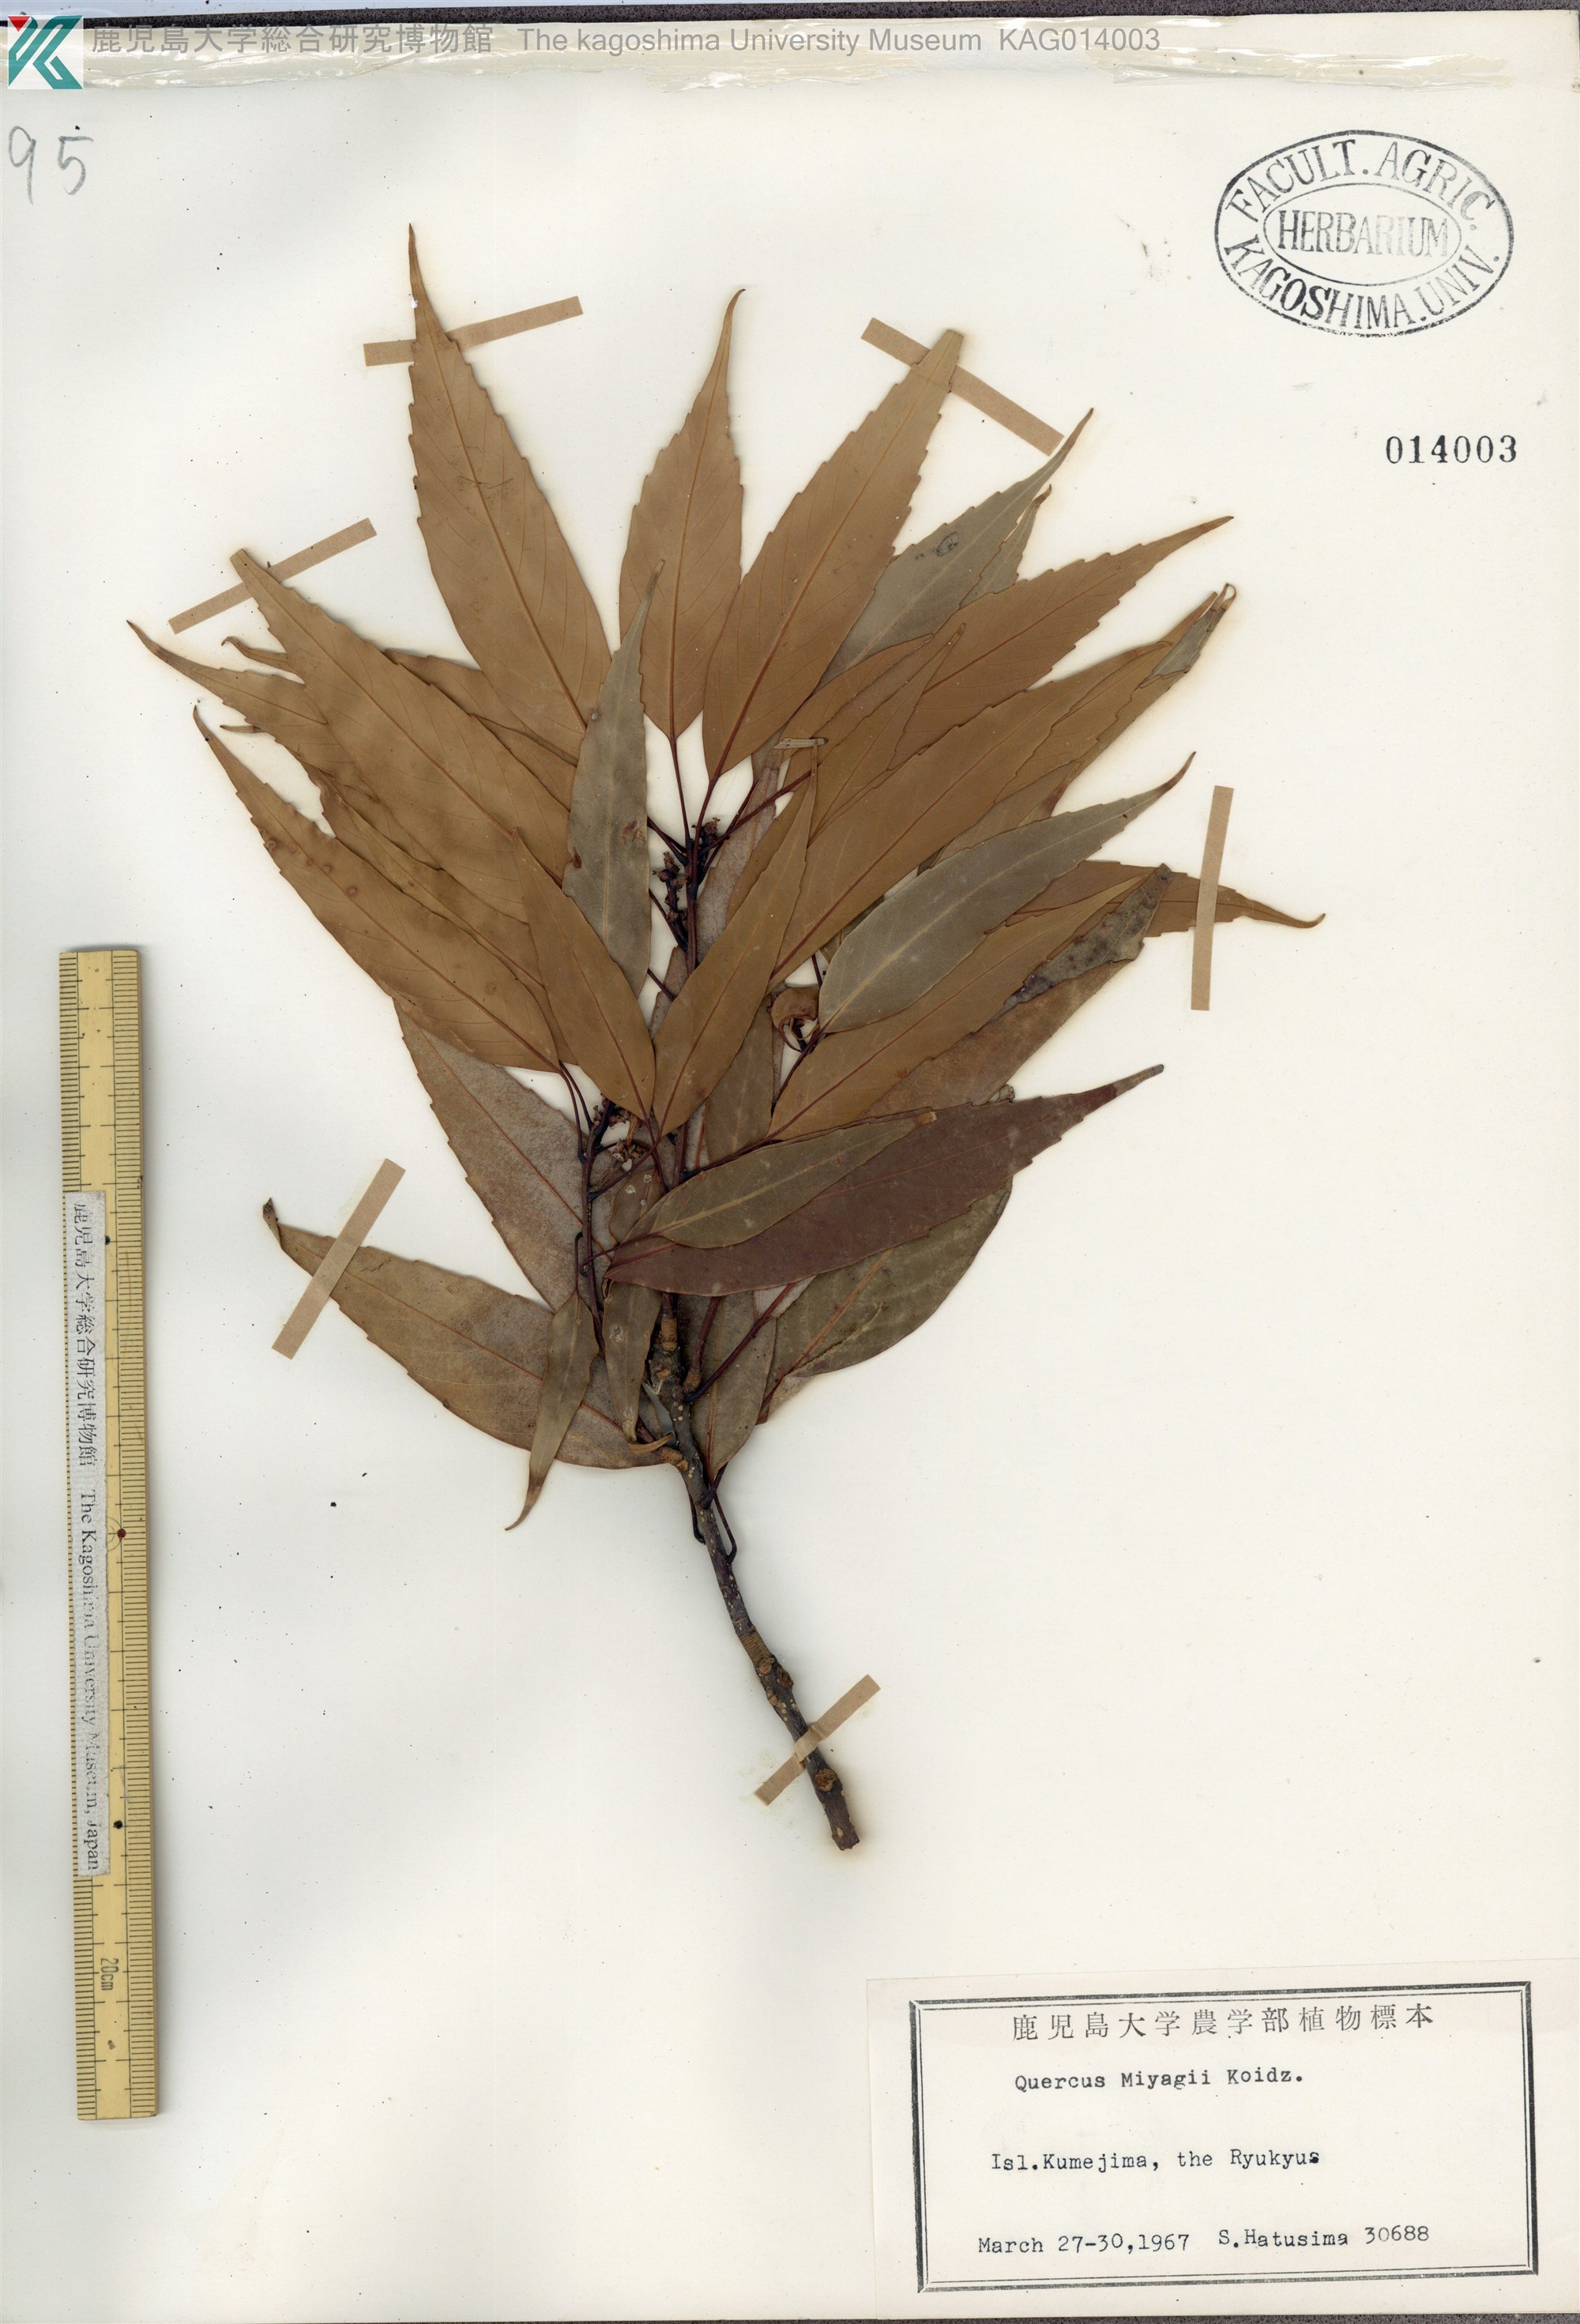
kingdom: Plantae
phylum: Tracheophyta
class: Magnoliopsida
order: Fagales
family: Fagaceae
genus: Quercus
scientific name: Quercus miyagii
